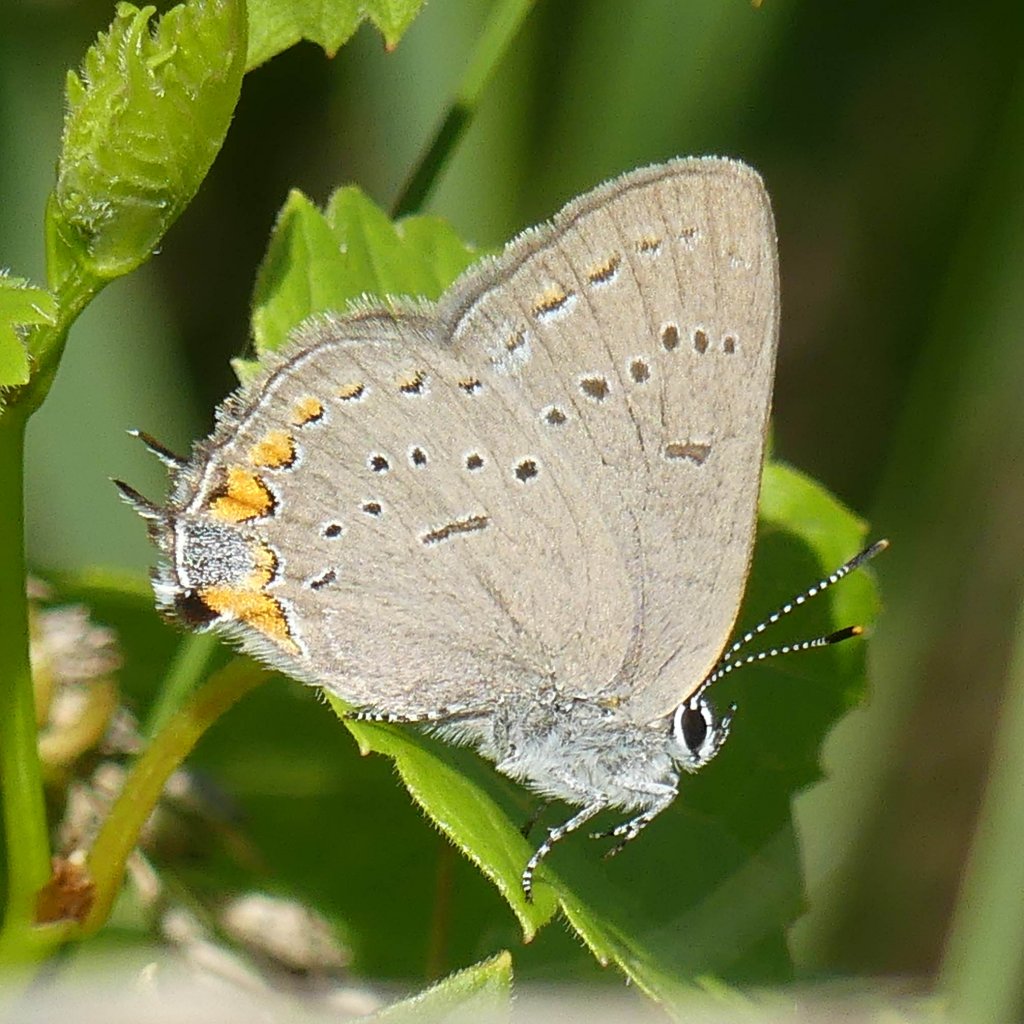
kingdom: Animalia
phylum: Arthropoda
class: Insecta
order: Lepidoptera
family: Lycaenidae
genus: Strymon
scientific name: Strymon acadica
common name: Acadian Hairstreak
